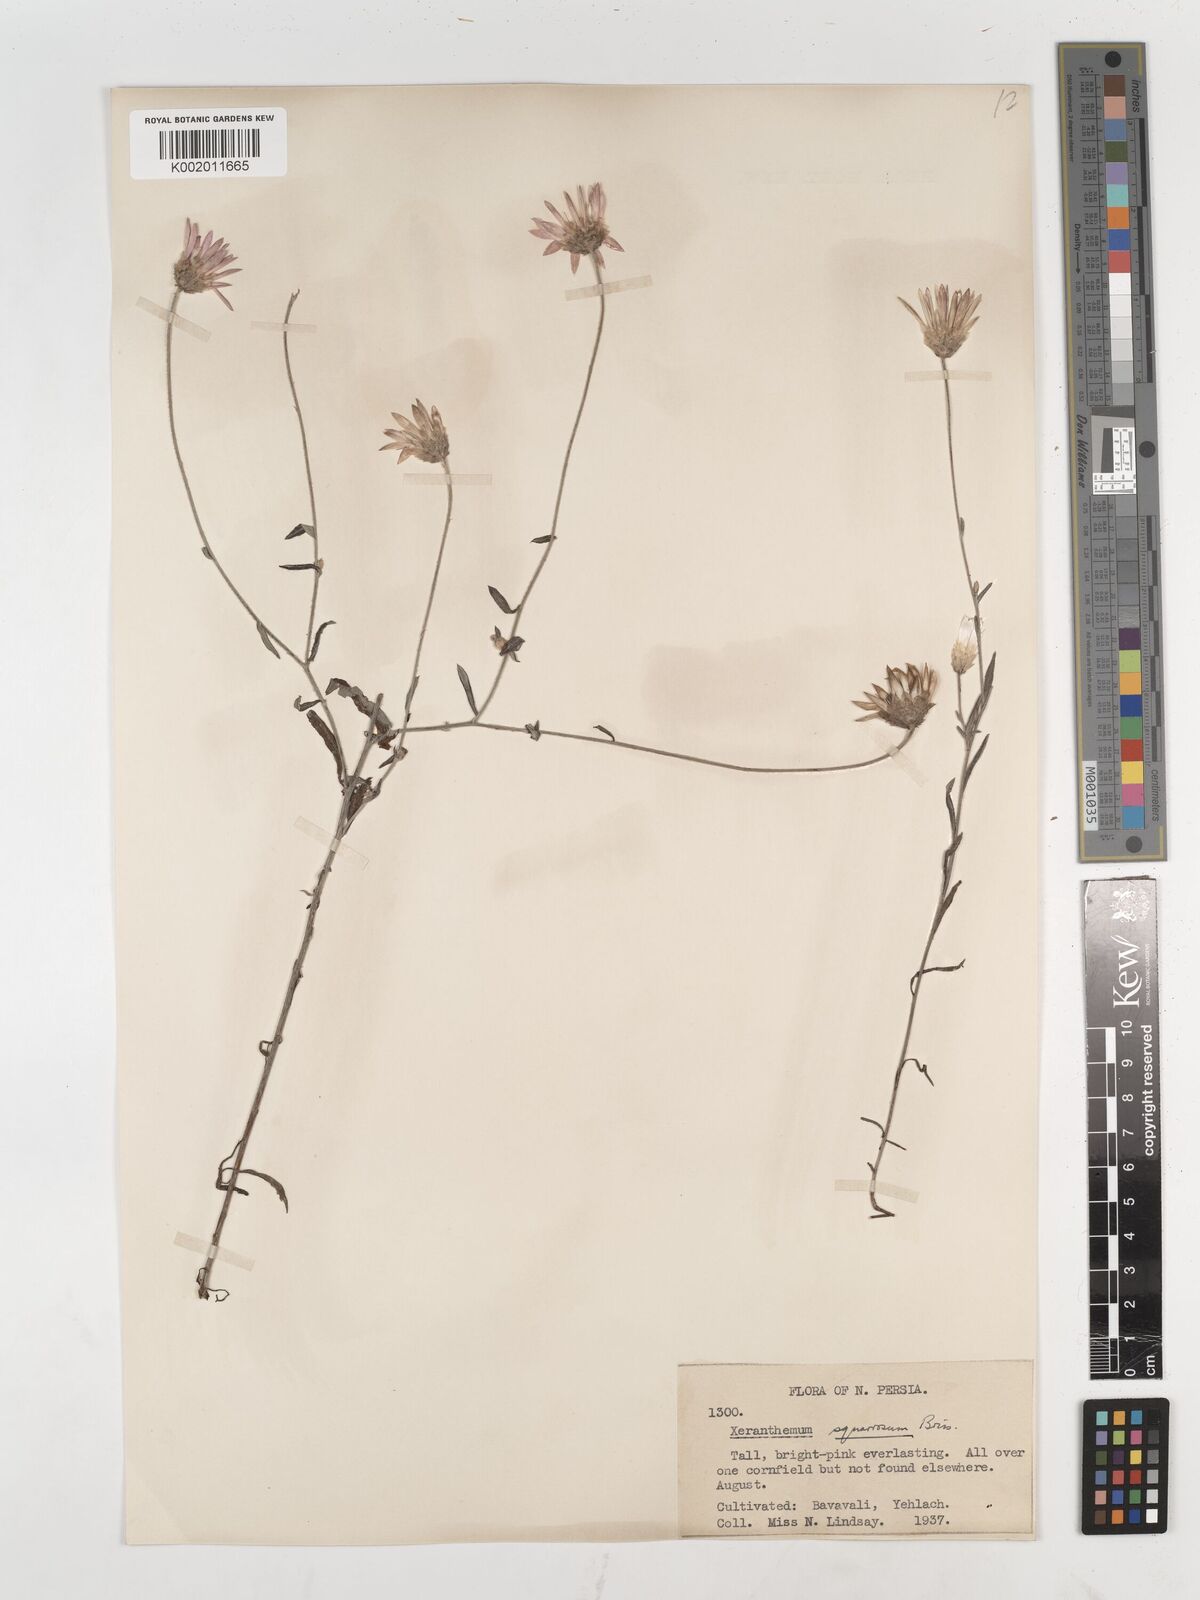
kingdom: Plantae
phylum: Tracheophyta
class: Magnoliopsida
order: Asterales
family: Asteraceae
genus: Xeranthemum
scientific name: Xeranthemum squarrosum
